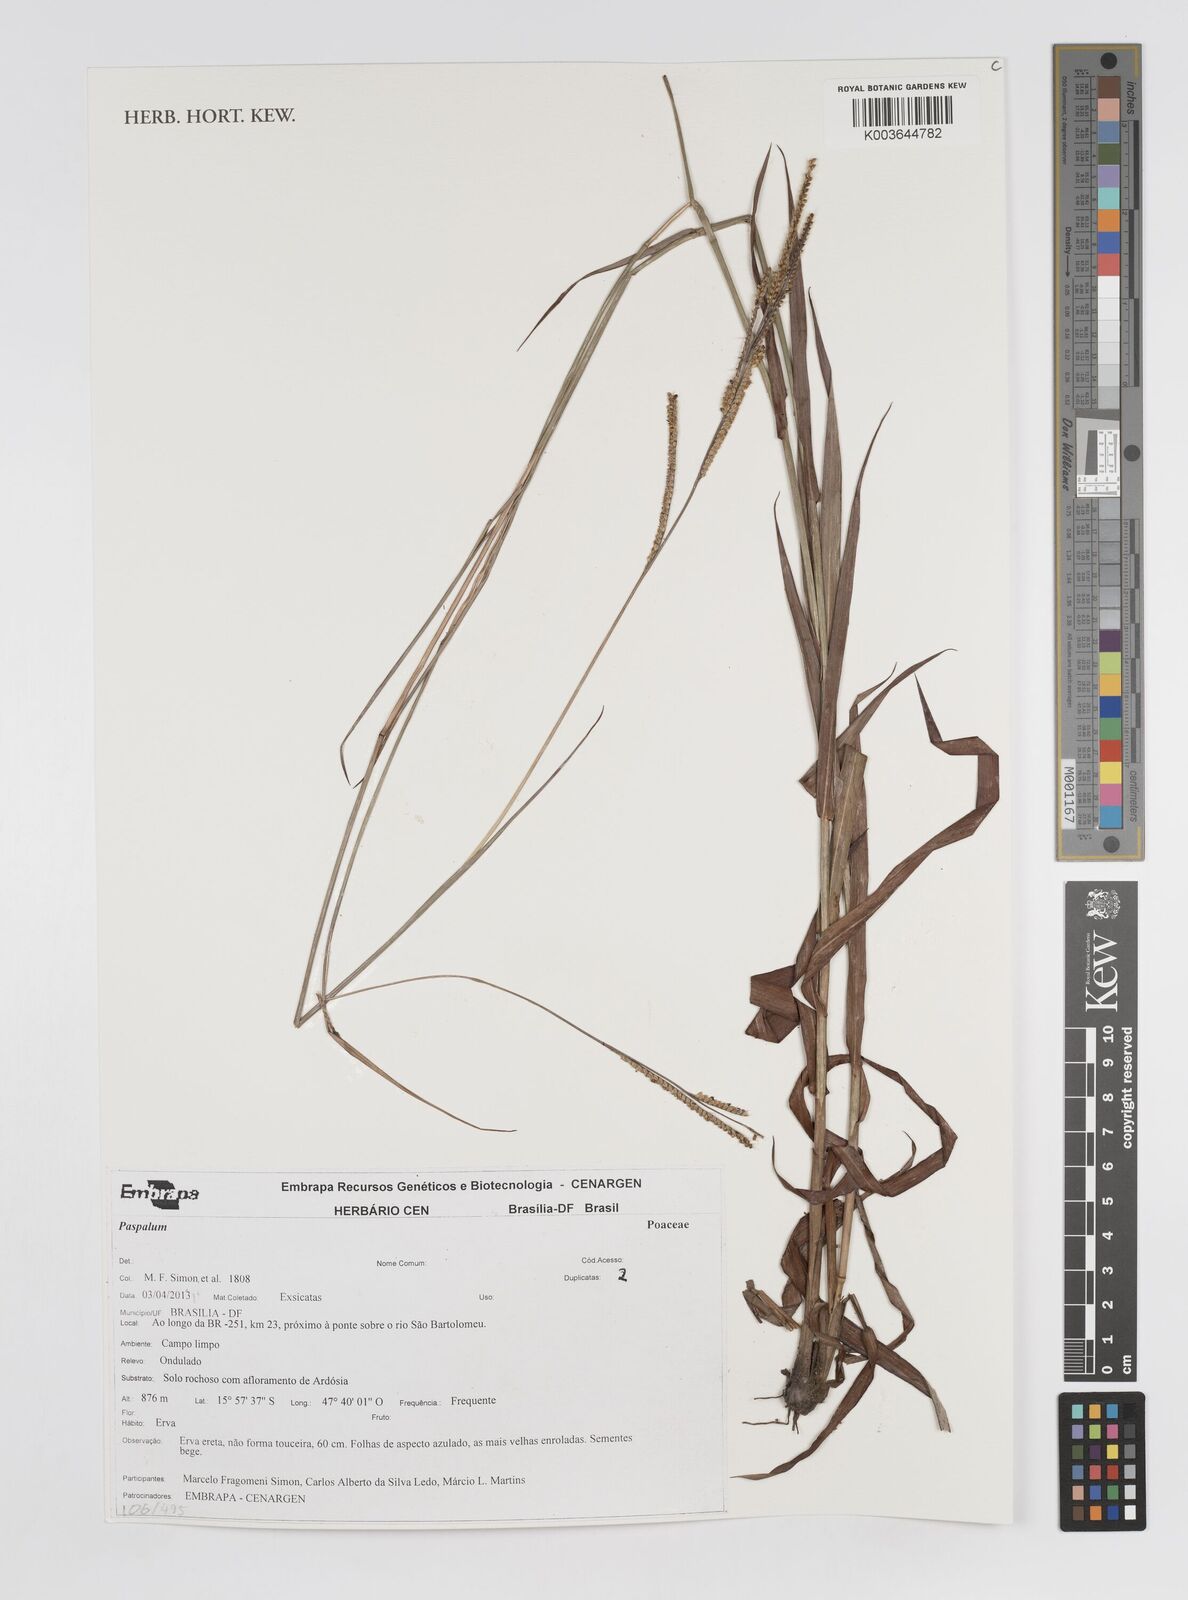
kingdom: Plantae
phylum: Tracheophyta
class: Liliopsida
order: Poales
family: Poaceae
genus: Paspalum
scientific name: Paspalum
